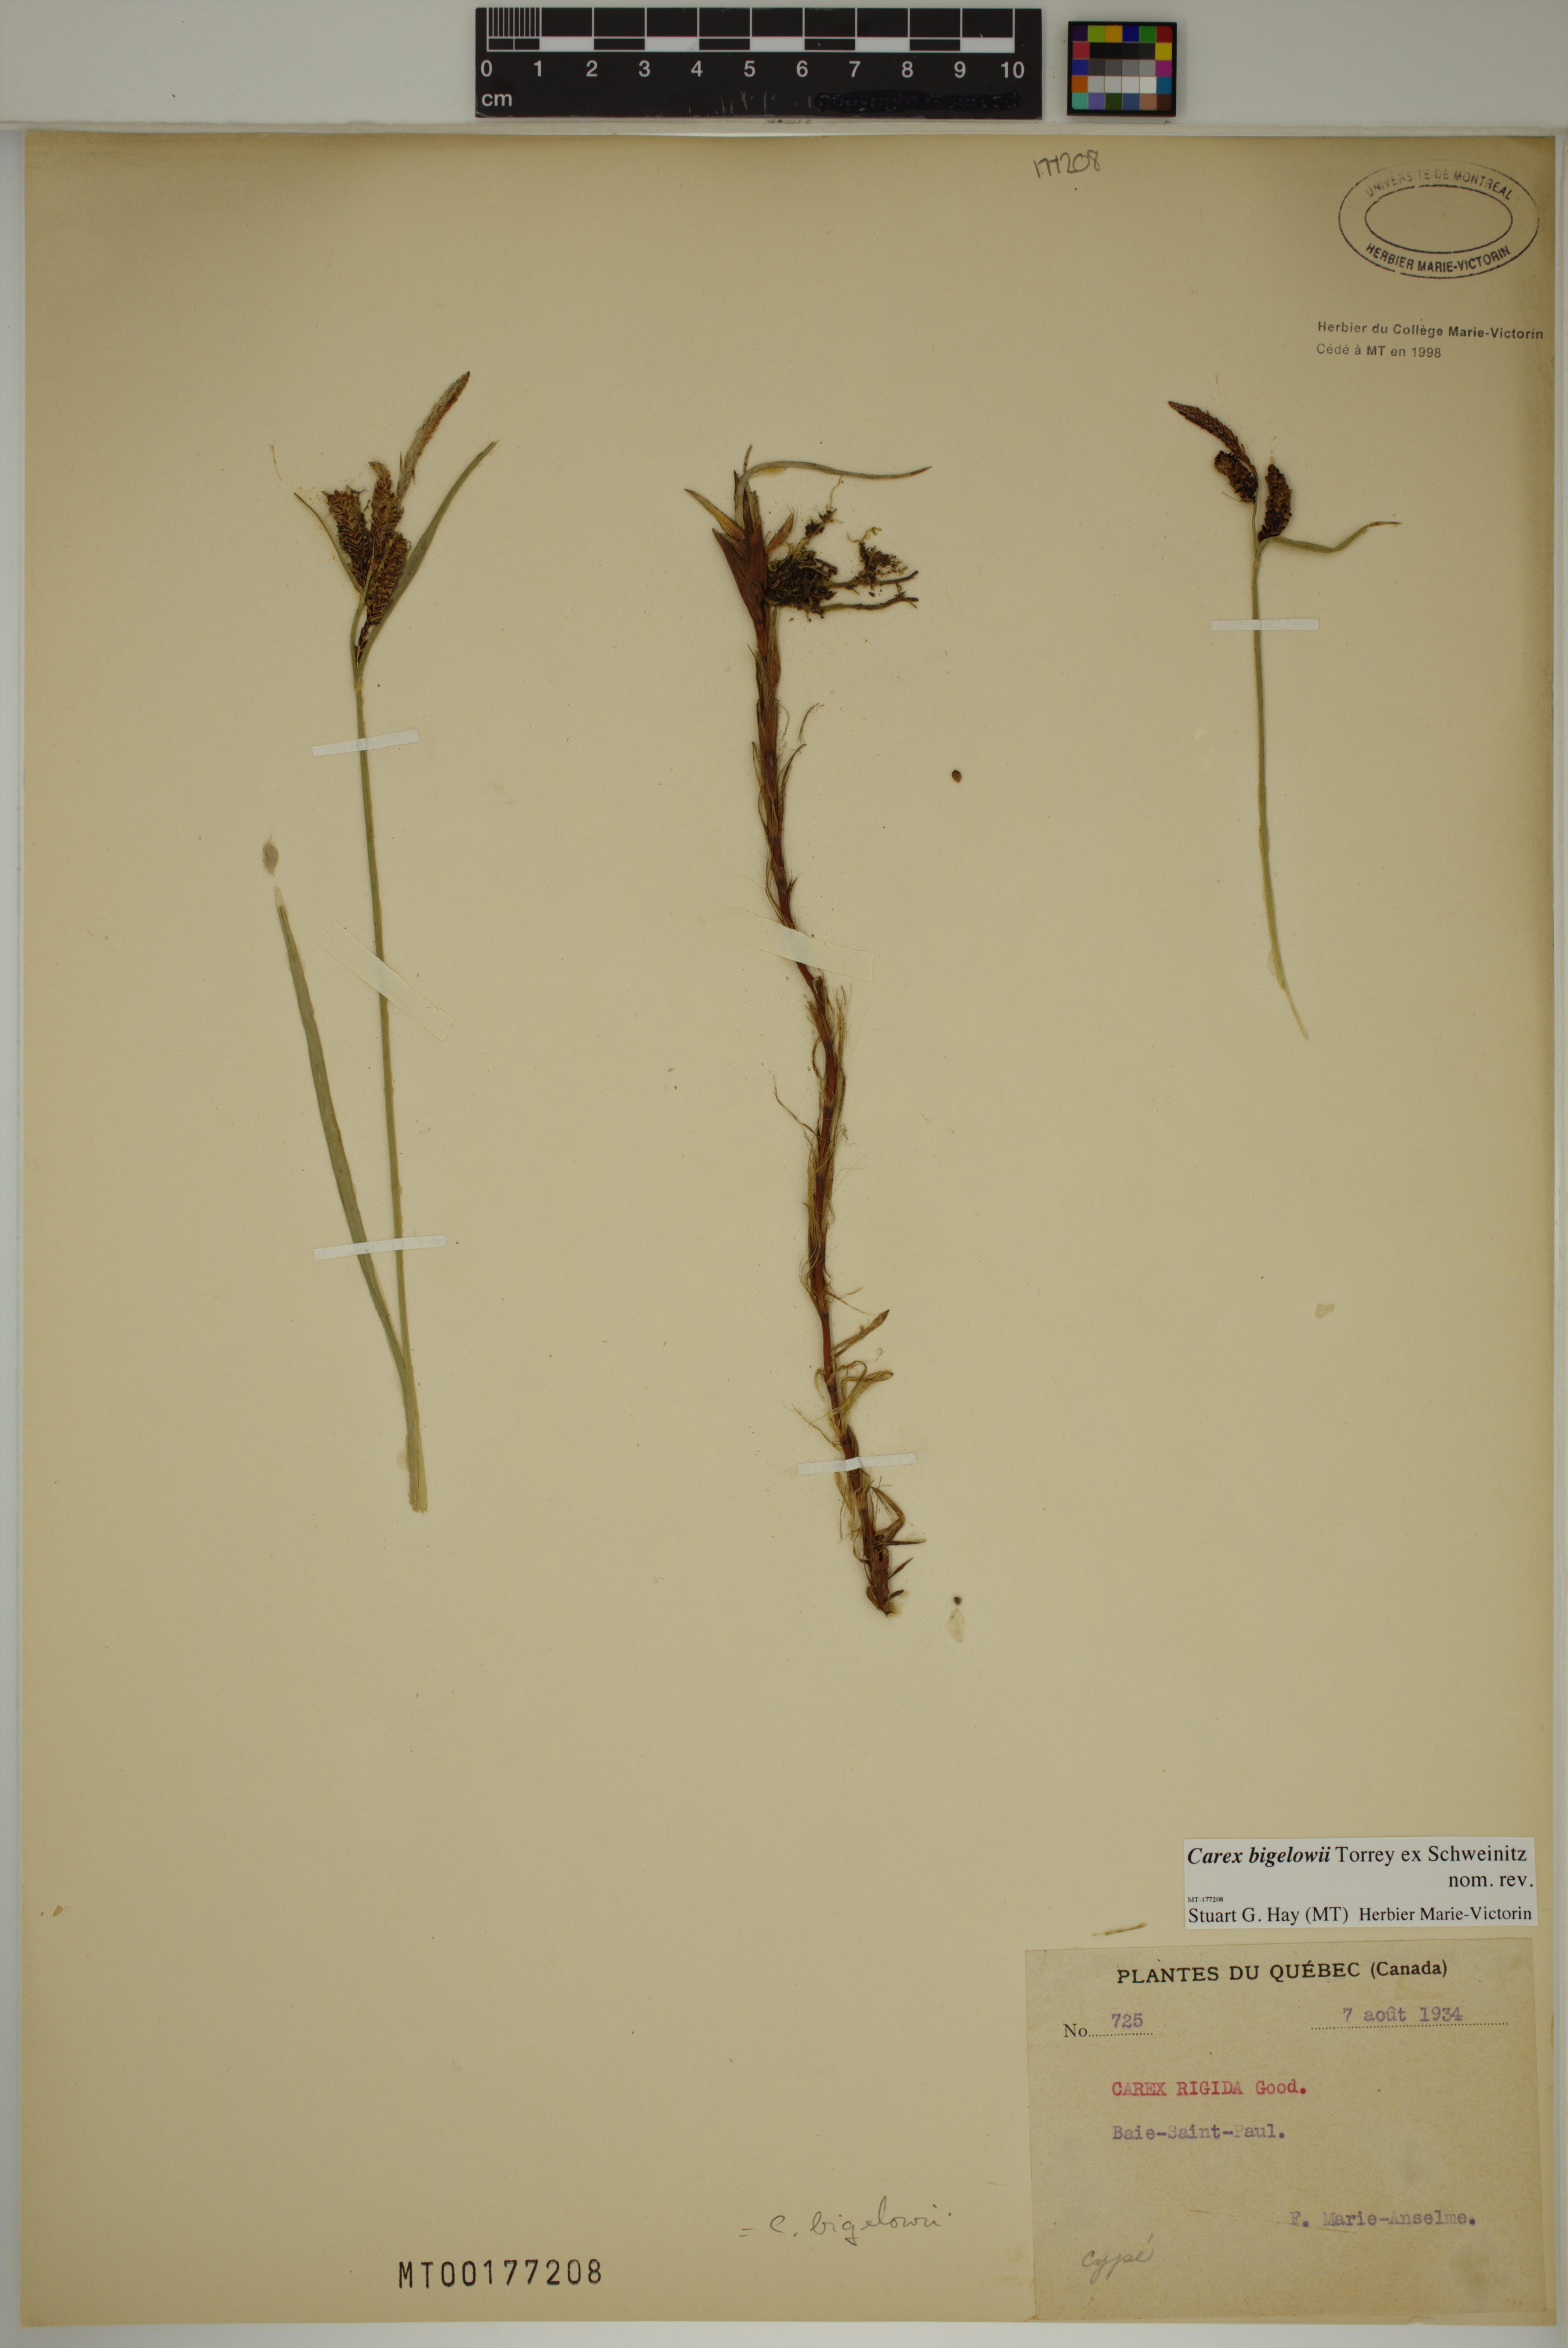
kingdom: Plantae
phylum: Tracheophyta
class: Liliopsida
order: Poales
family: Cyperaceae
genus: Carex
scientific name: Carex bigelowii
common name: Stiff sedge
